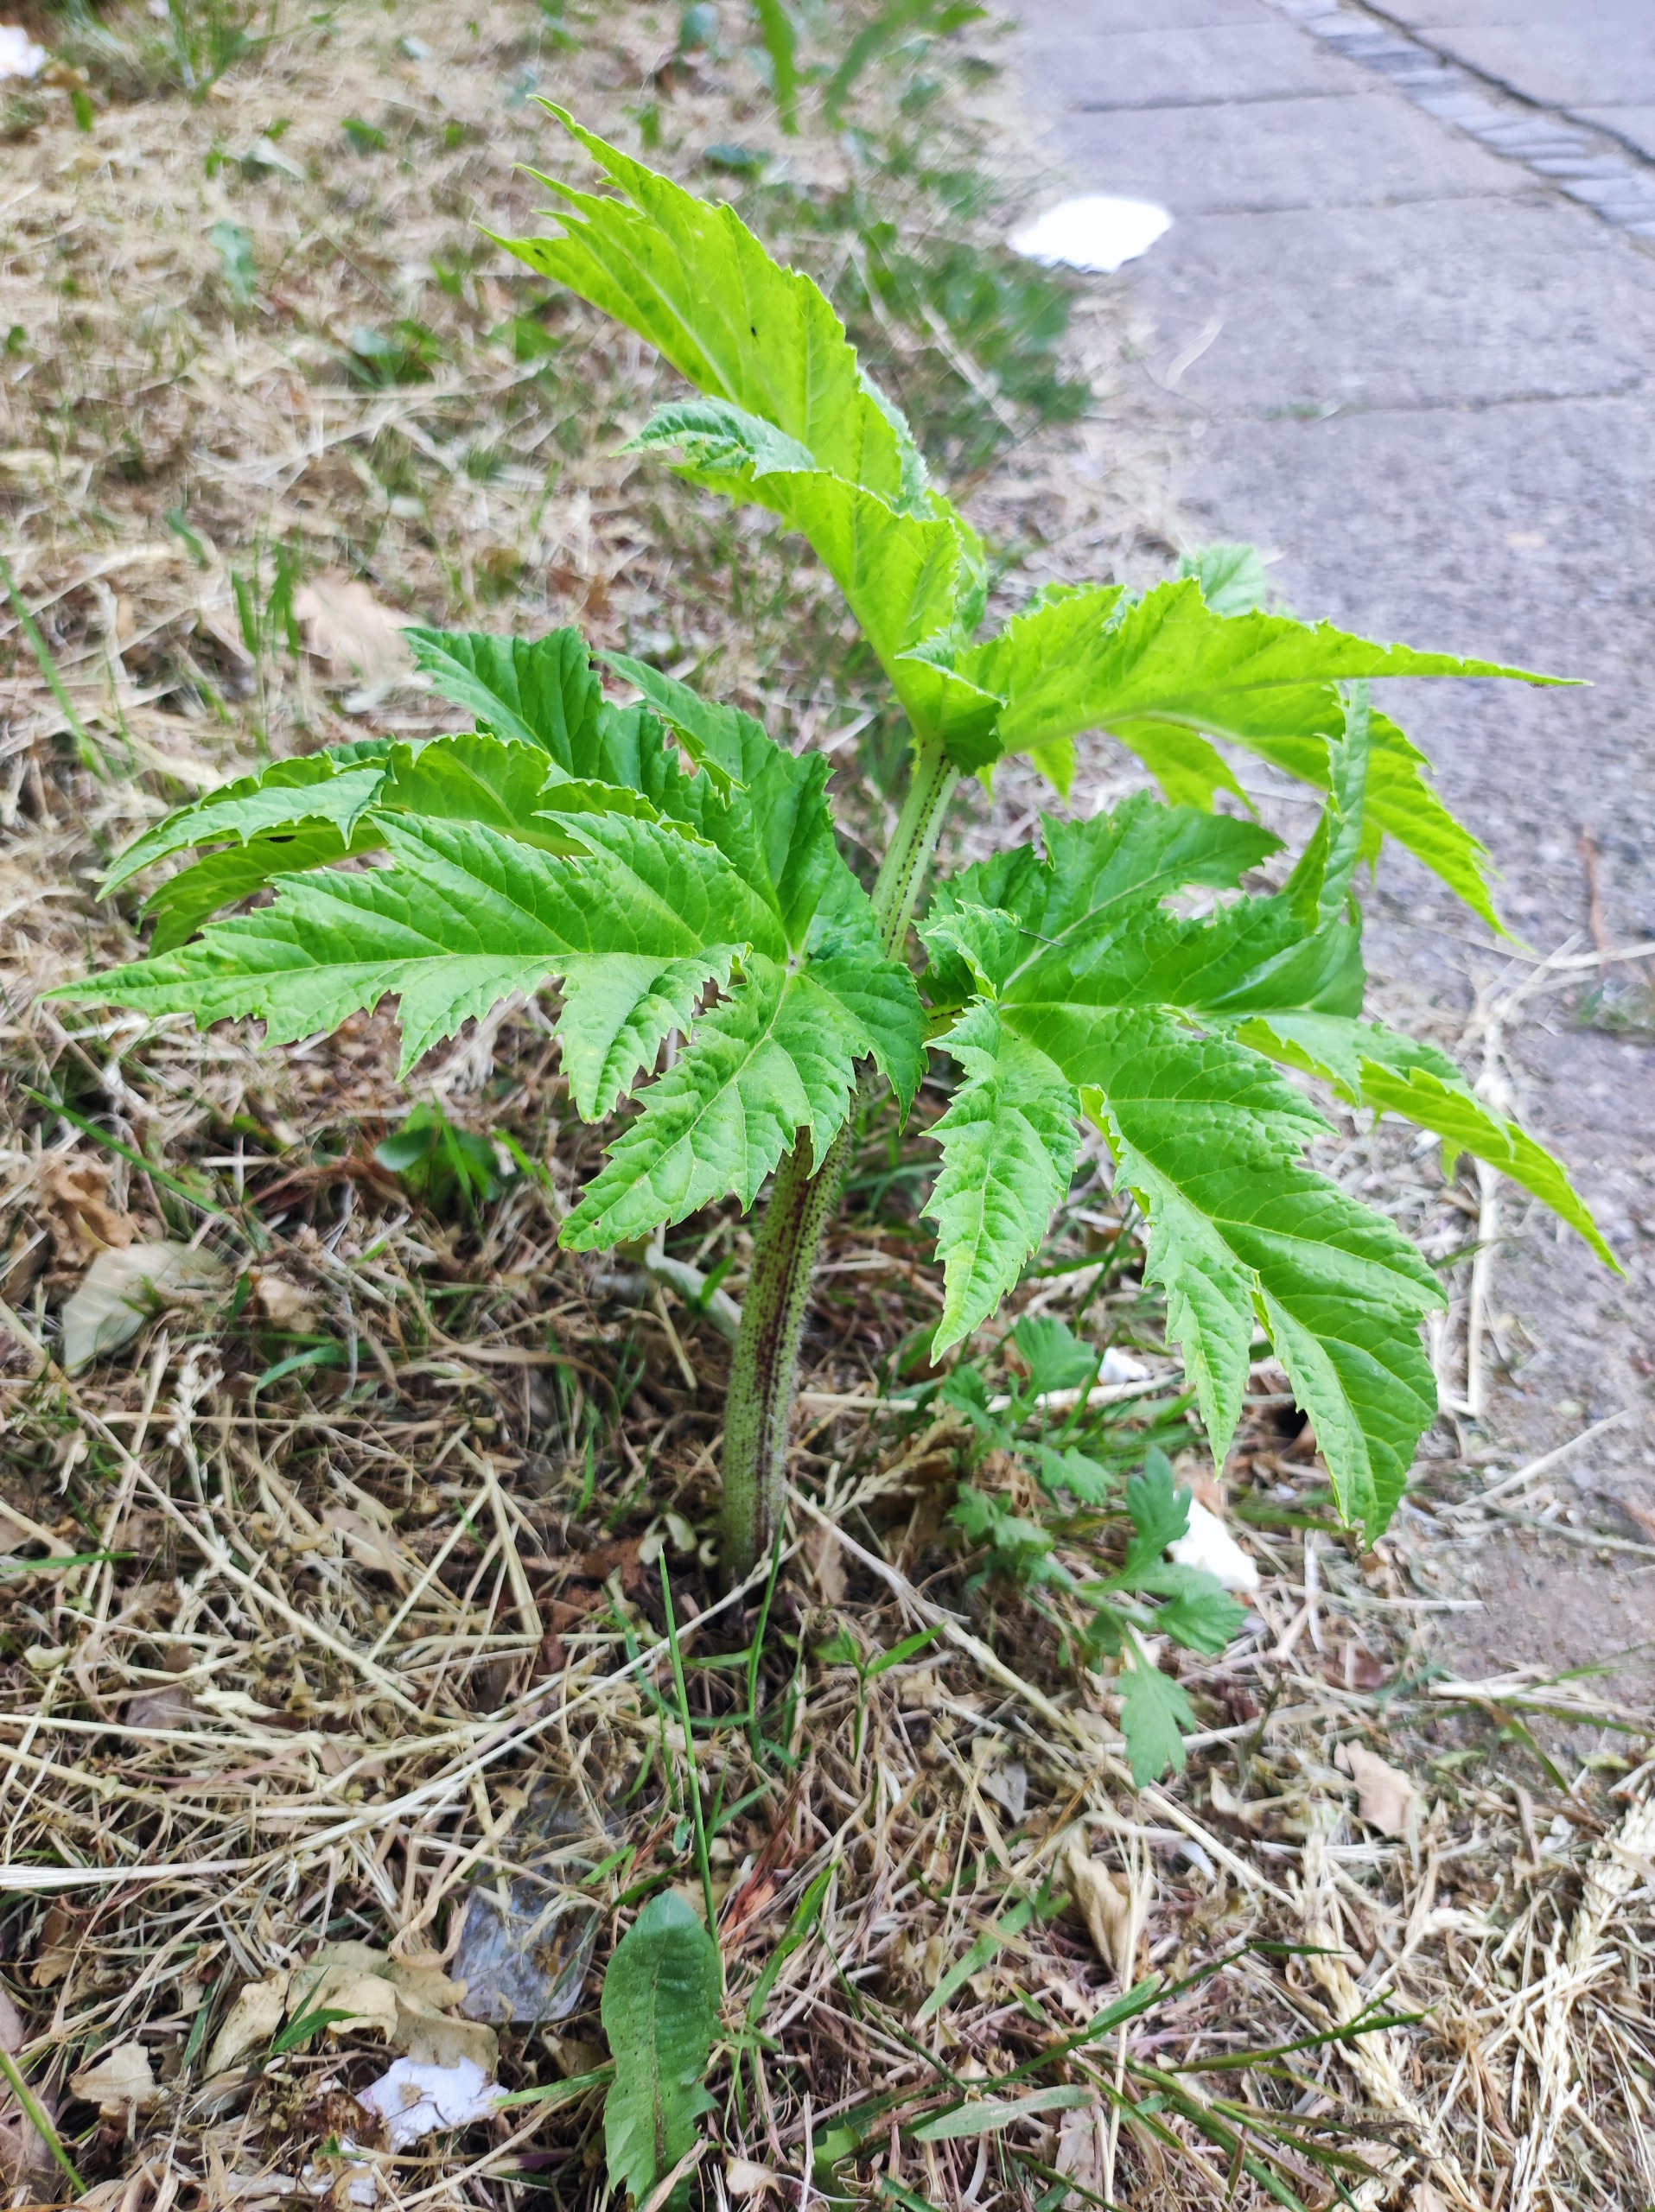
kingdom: Plantae
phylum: Tracheophyta
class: Magnoliopsida
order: Apiales
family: Apiaceae
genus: Heracleum
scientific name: Heracleum mantegazzianum
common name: Kæmpe-bjørneklo
